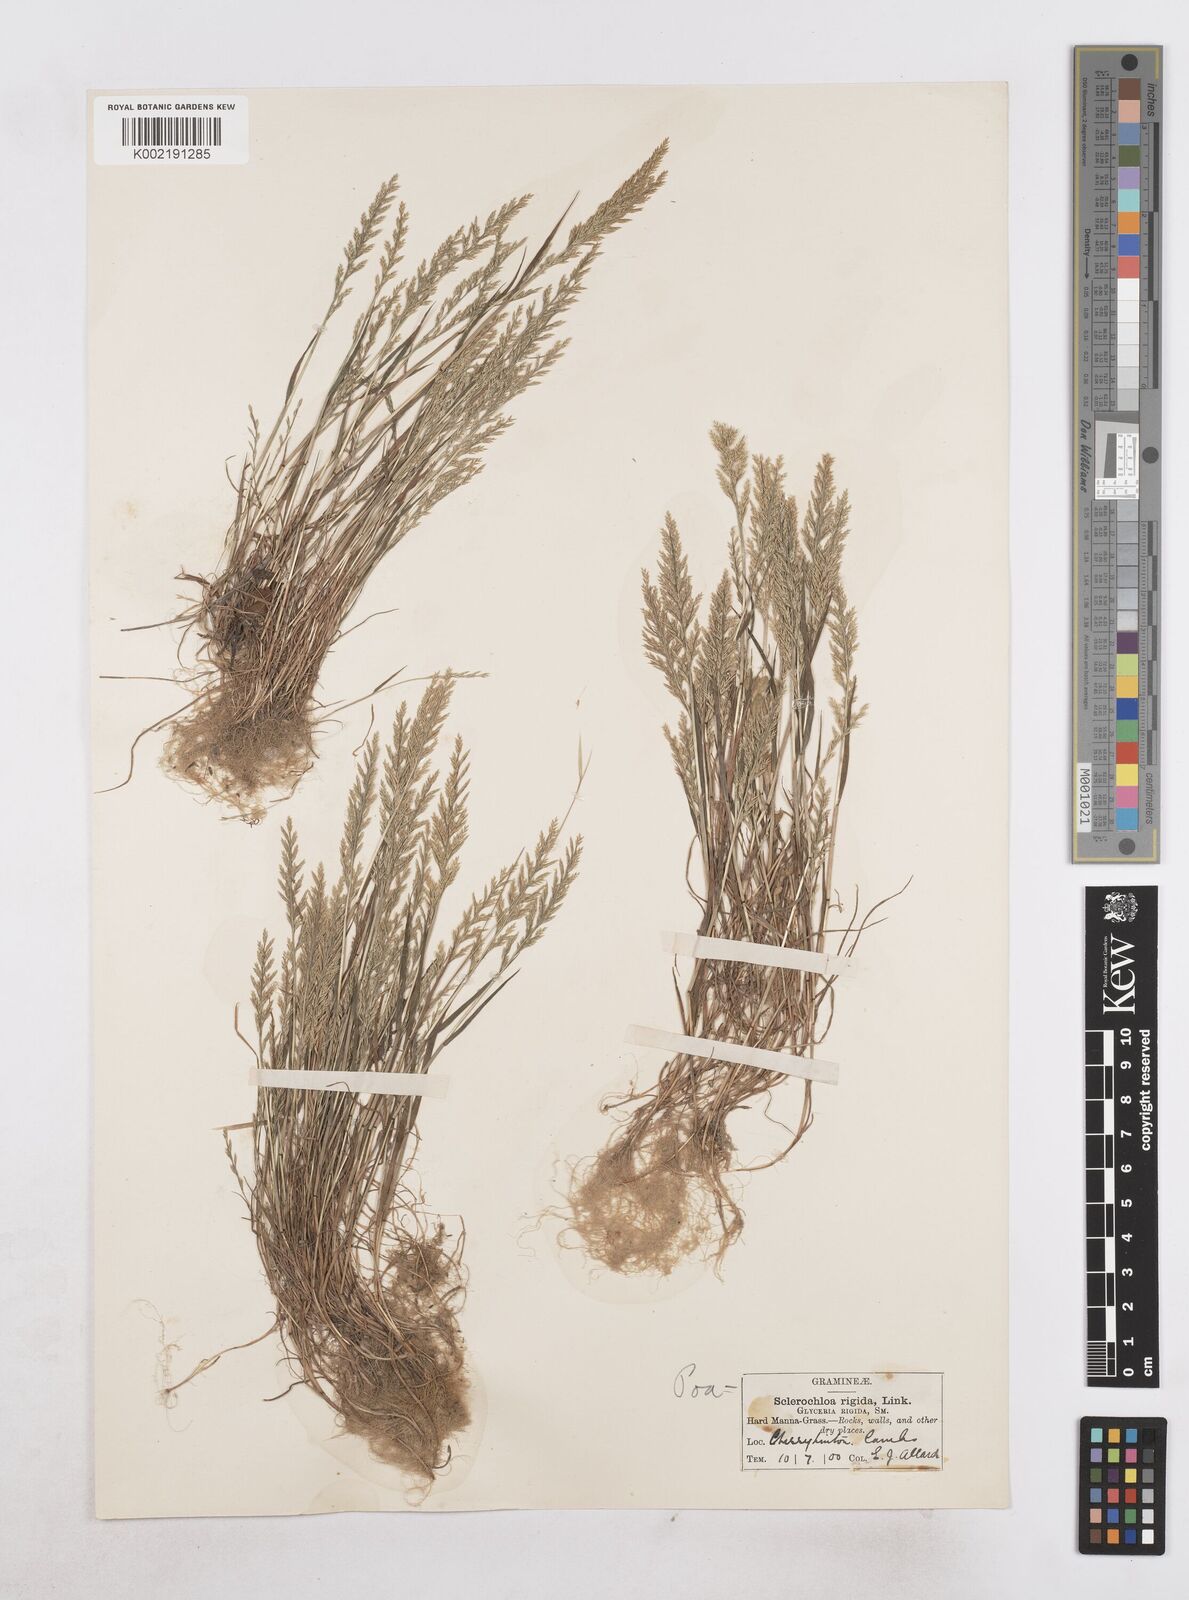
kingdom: Plantae
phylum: Tracheophyta
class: Liliopsida
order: Poales
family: Poaceae
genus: Catapodium
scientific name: Catapodium rigidum
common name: Fern-grass
